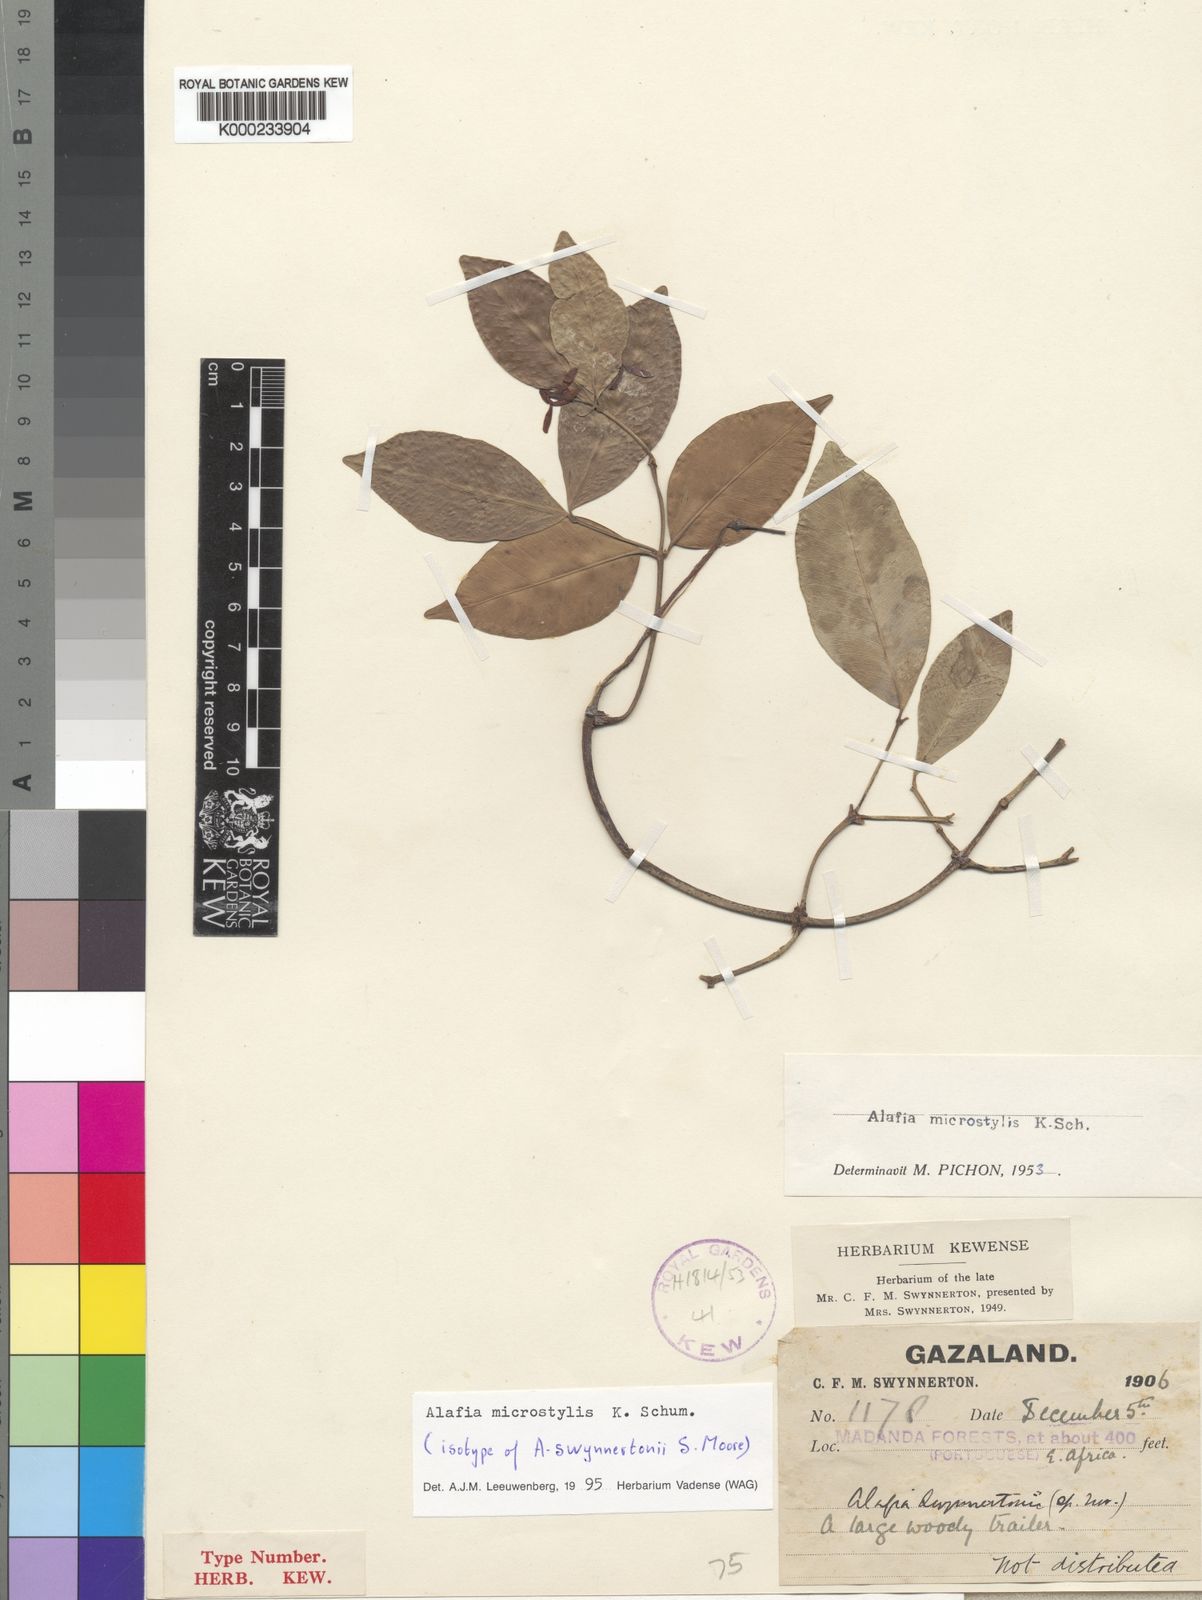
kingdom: Plantae
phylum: Tracheophyta
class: Magnoliopsida
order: Gentianales
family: Apocynaceae
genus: Alafia
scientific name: Alafia microstylis
